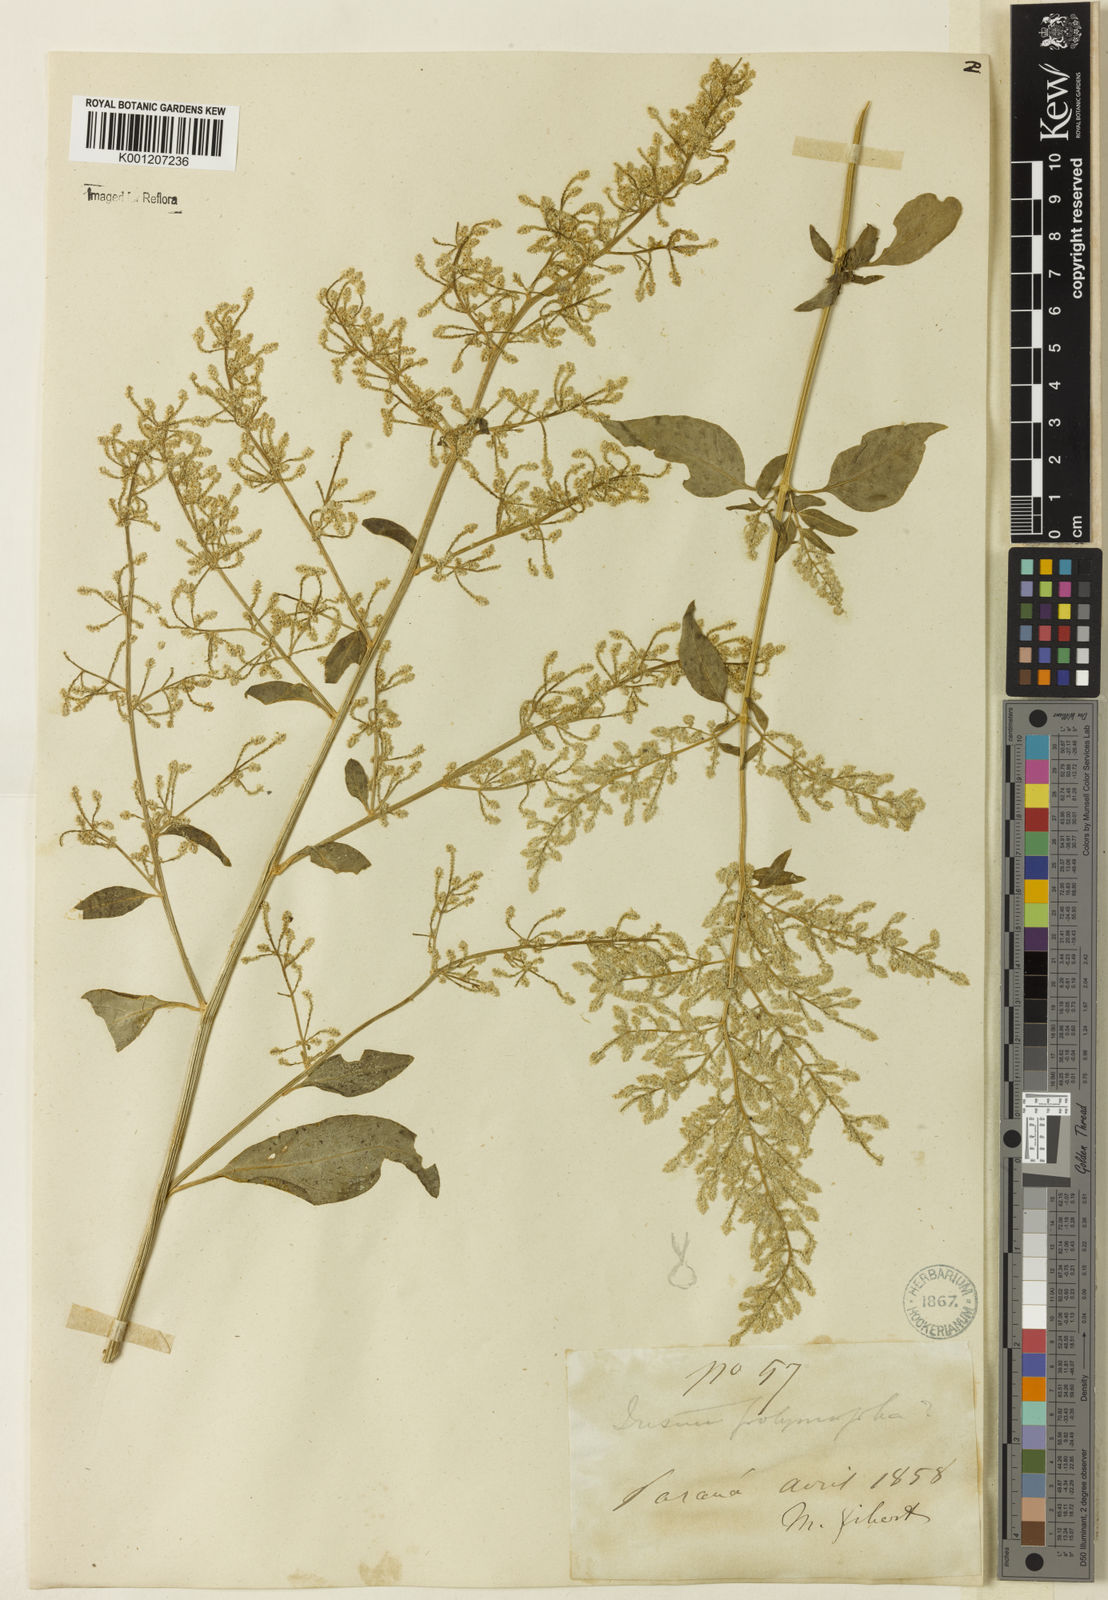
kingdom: Plantae
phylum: Tracheophyta
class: Magnoliopsida
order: Caryophyllales
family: Amaranthaceae
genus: Iresine
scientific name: Iresine rhizomatosa
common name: Juda's-bush
